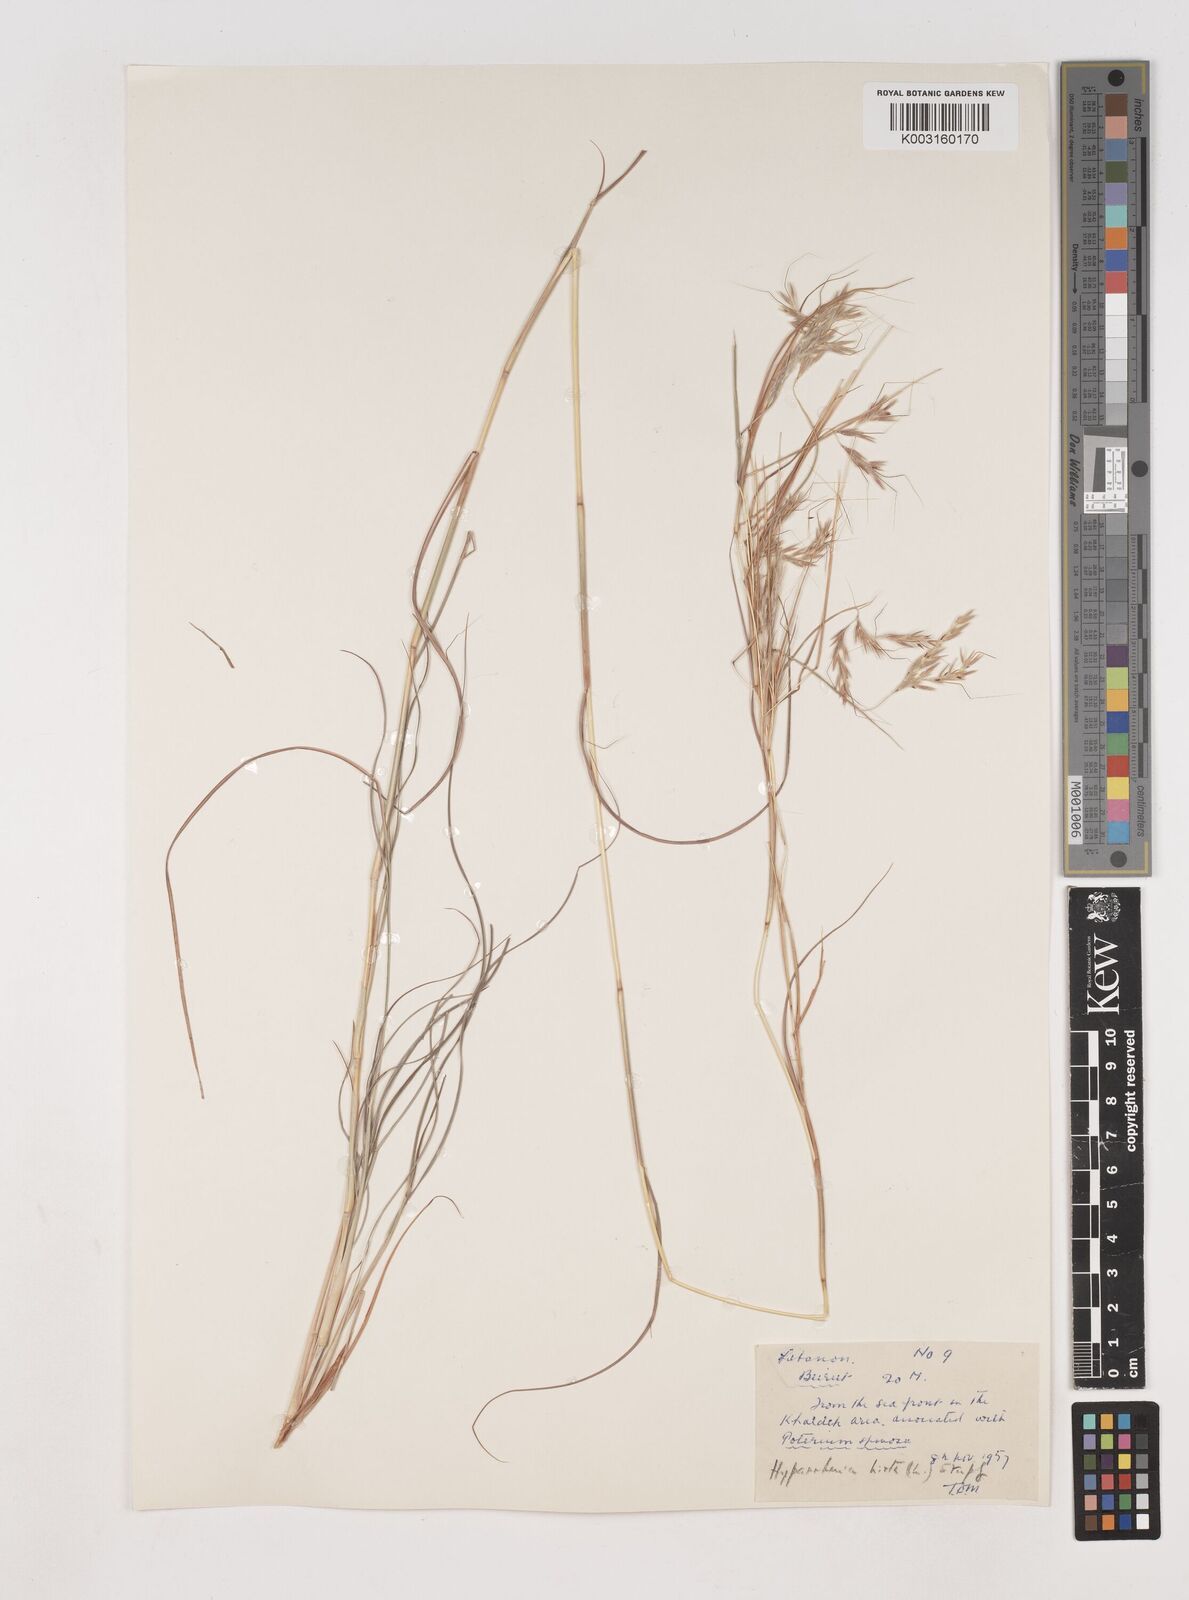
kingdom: Plantae
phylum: Tracheophyta
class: Liliopsida
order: Poales
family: Poaceae
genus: Hyparrhenia
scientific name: Hyparrhenia hirta
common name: Thatching grass
